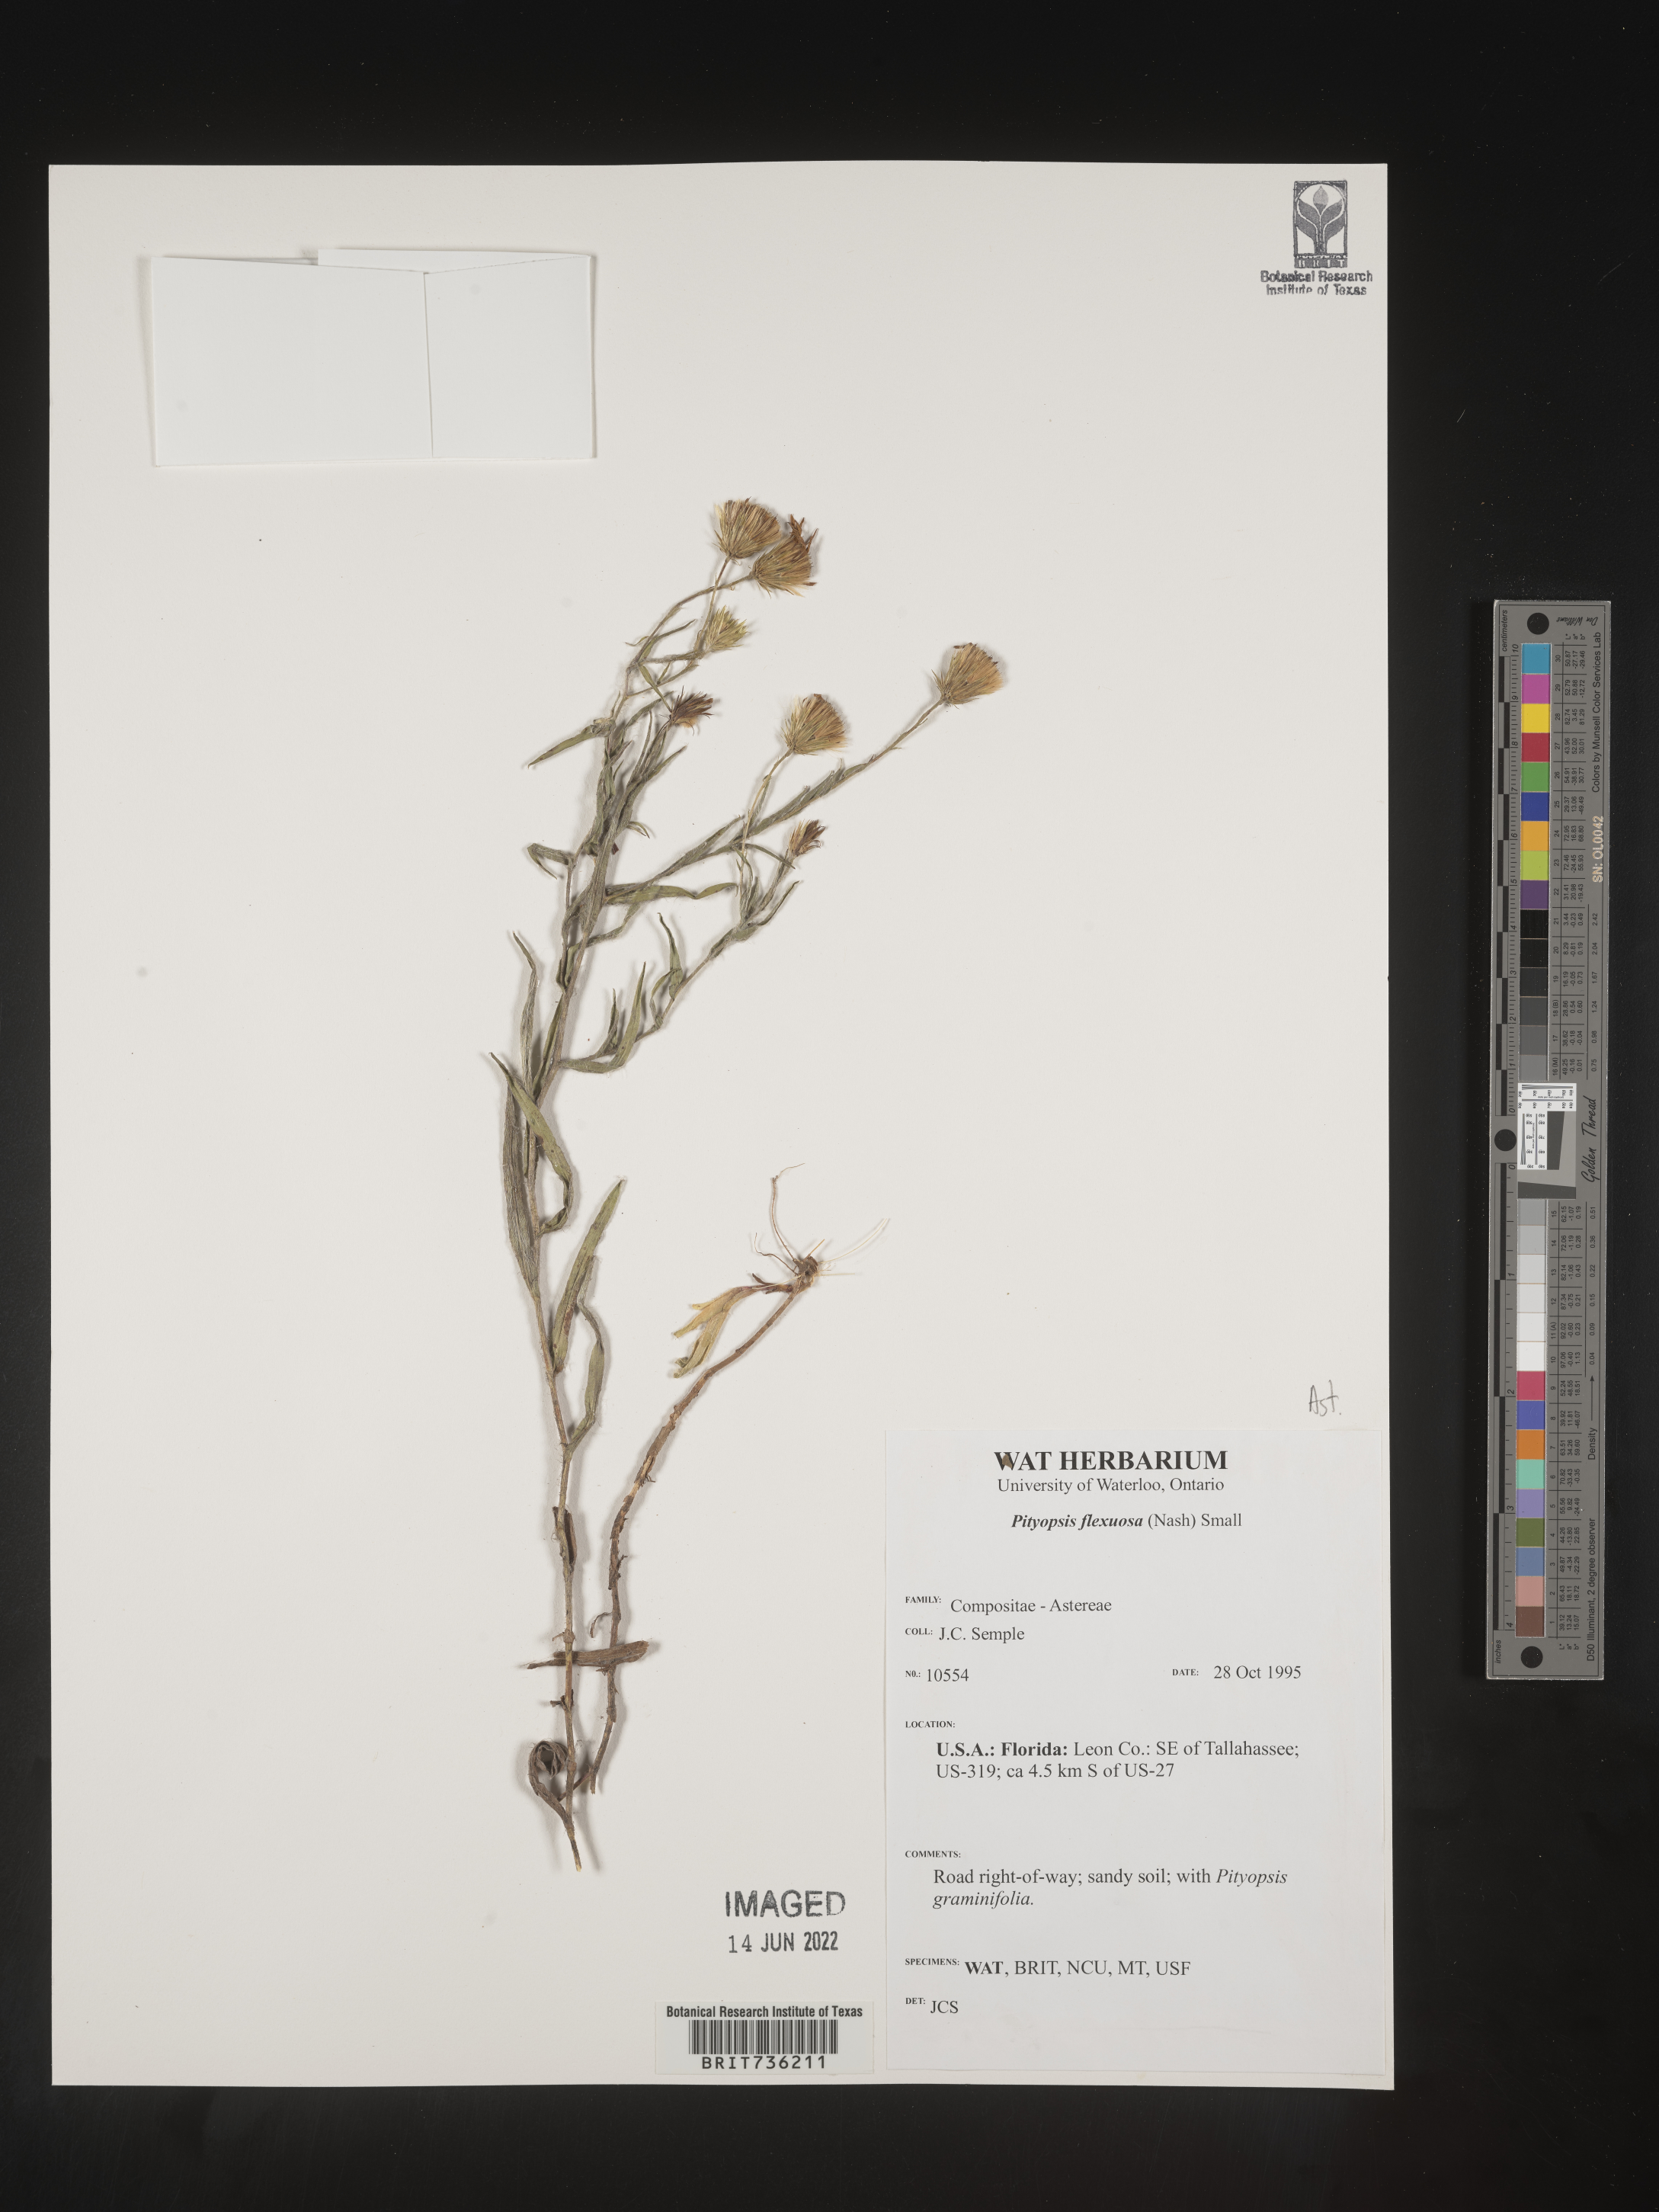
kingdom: Plantae
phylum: Tracheophyta
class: Magnoliopsida
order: Asterales
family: Asteraceae
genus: Pityopsis
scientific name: Pityopsis flexuosa
